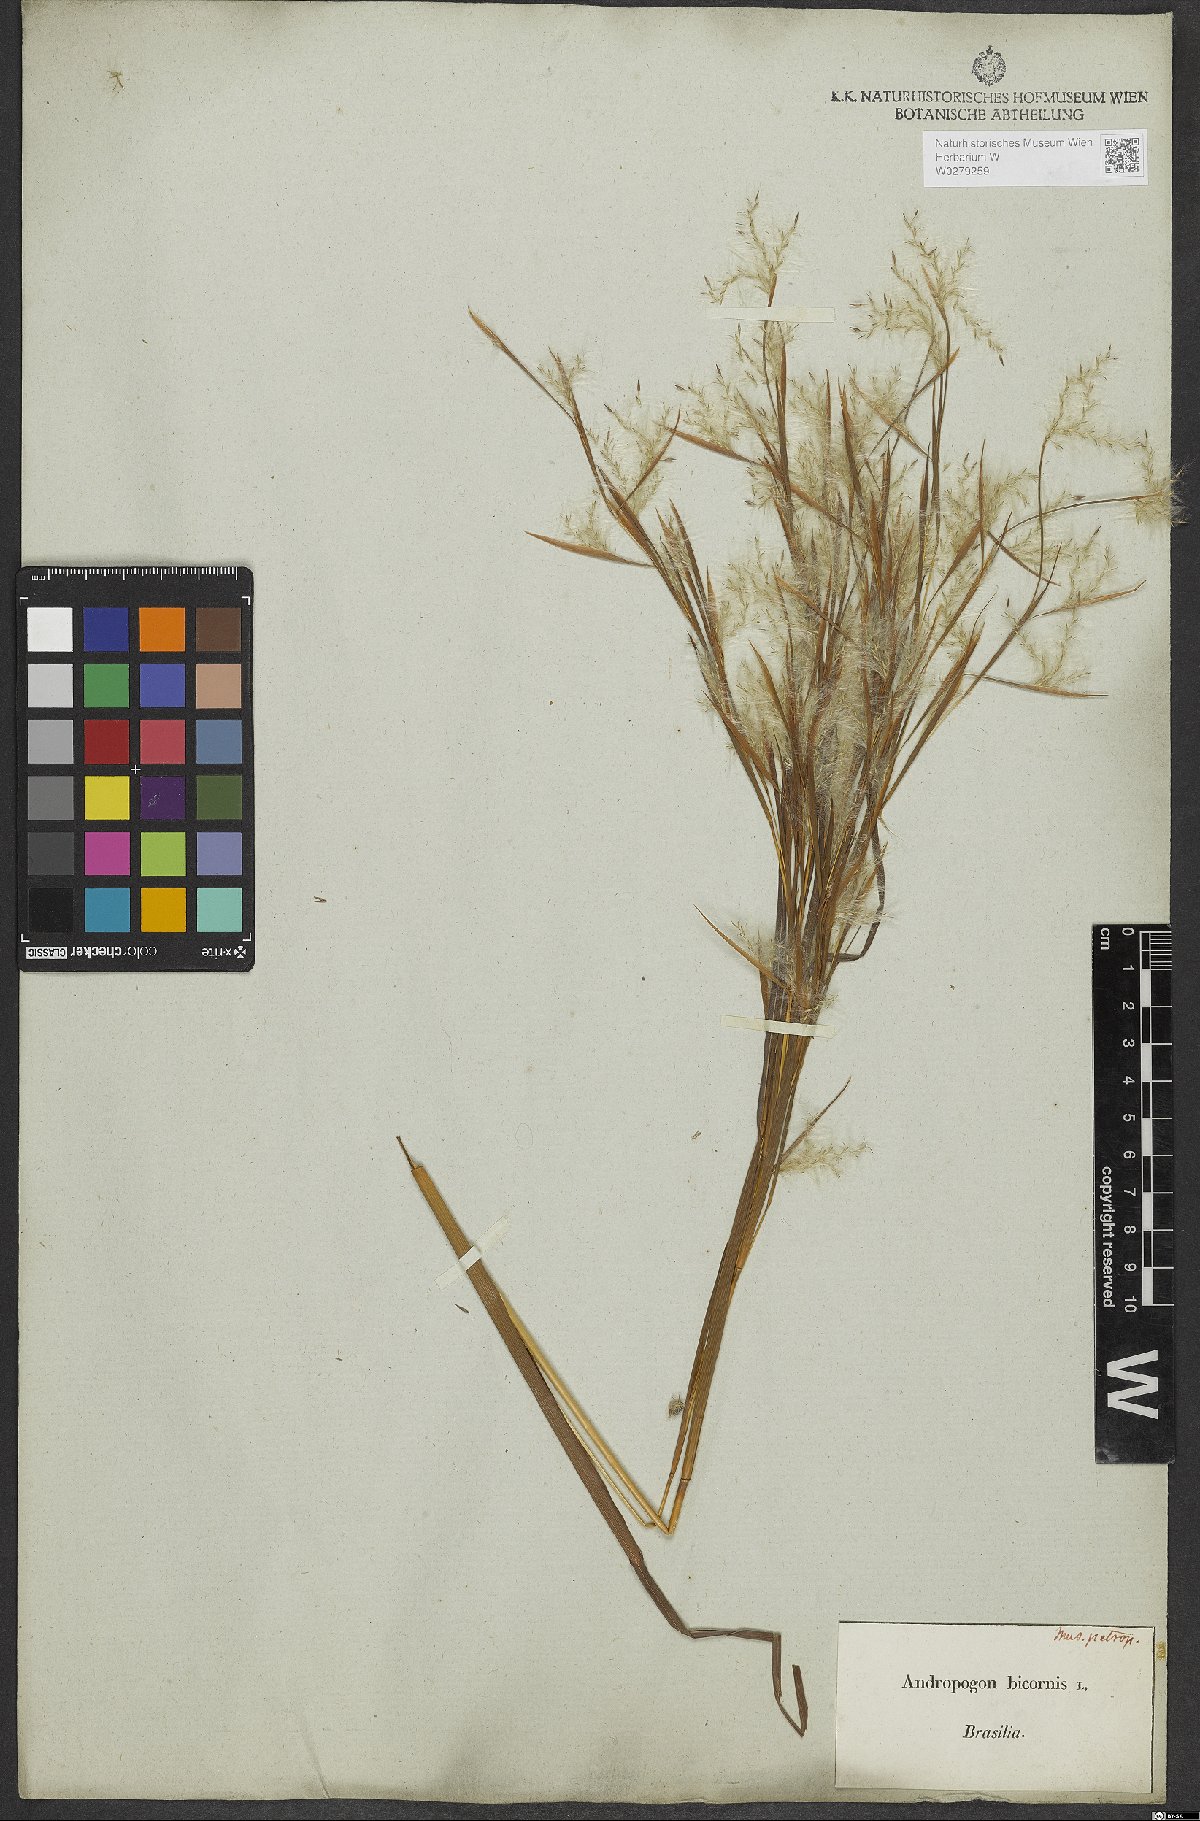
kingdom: Plantae
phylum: Tracheophyta
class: Liliopsida
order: Poales
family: Poaceae
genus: Andropogon
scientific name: Andropogon bicornis
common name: West indian foxtail grass
